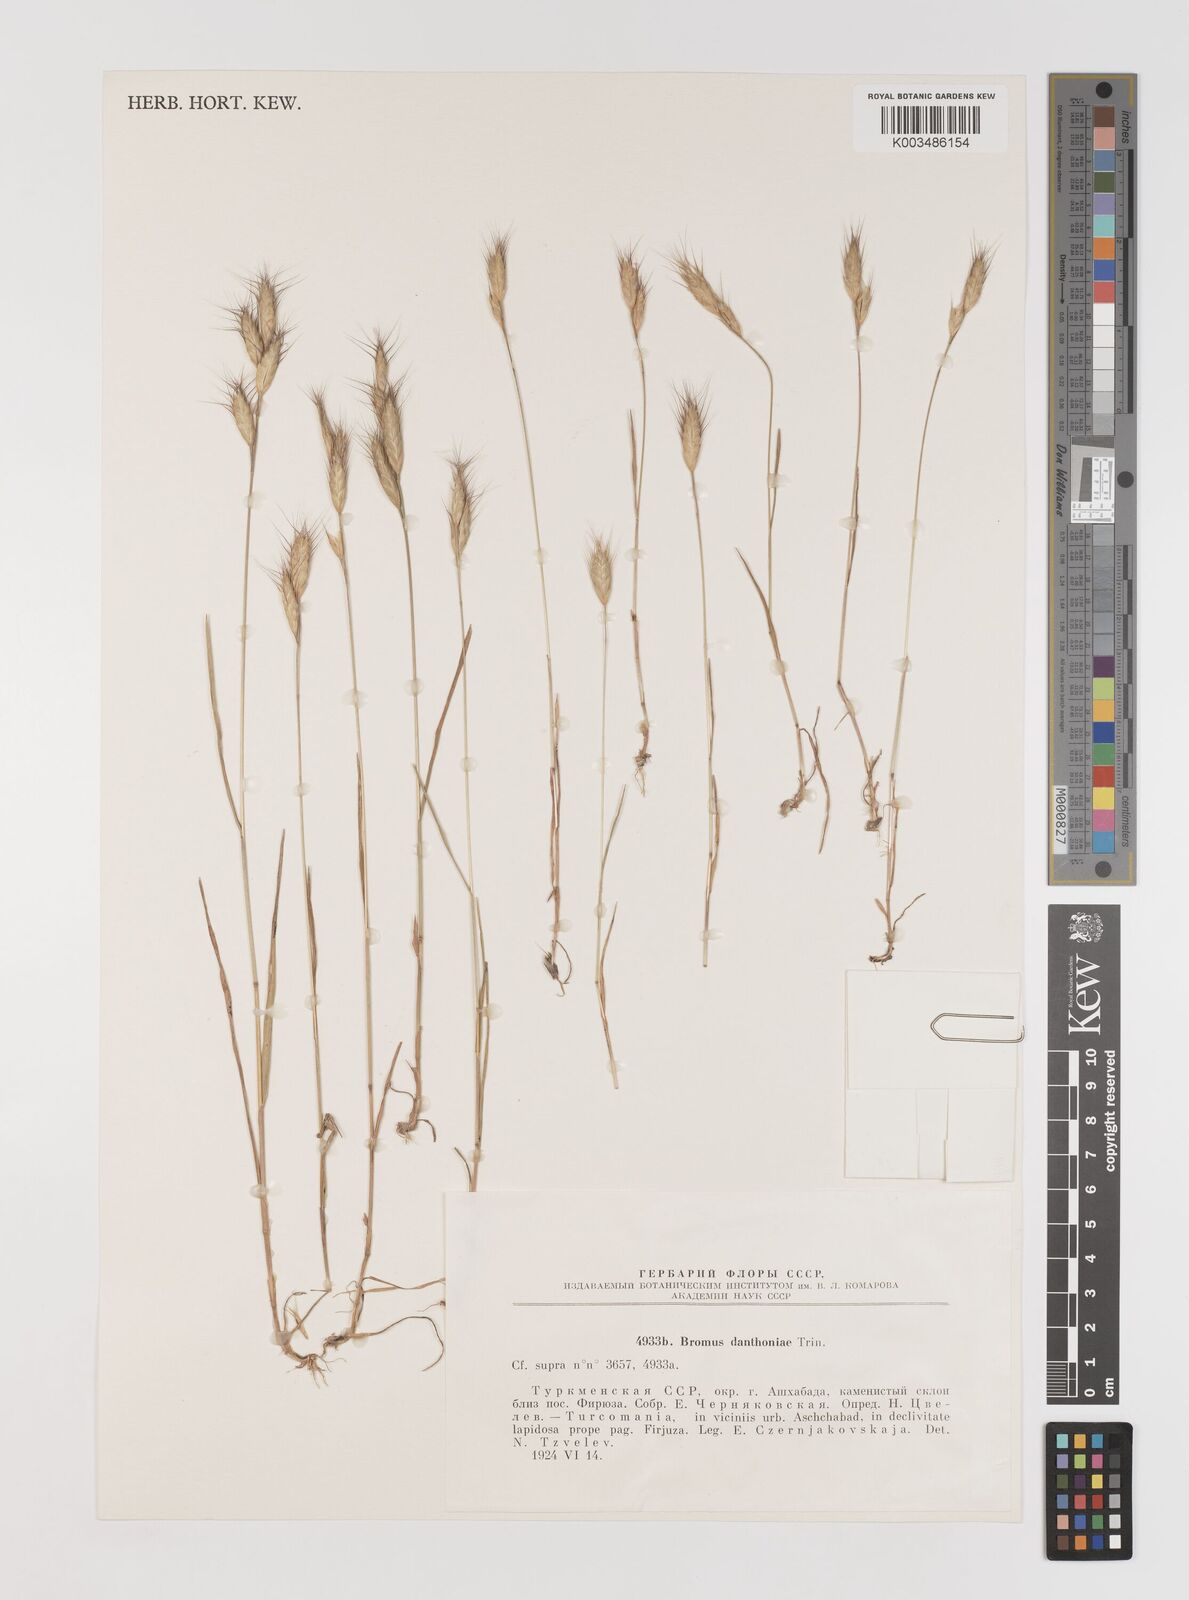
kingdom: Plantae
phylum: Tracheophyta
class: Liliopsida
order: Poales
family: Poaceae
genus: Bromus
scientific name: Bromus danthoniae
